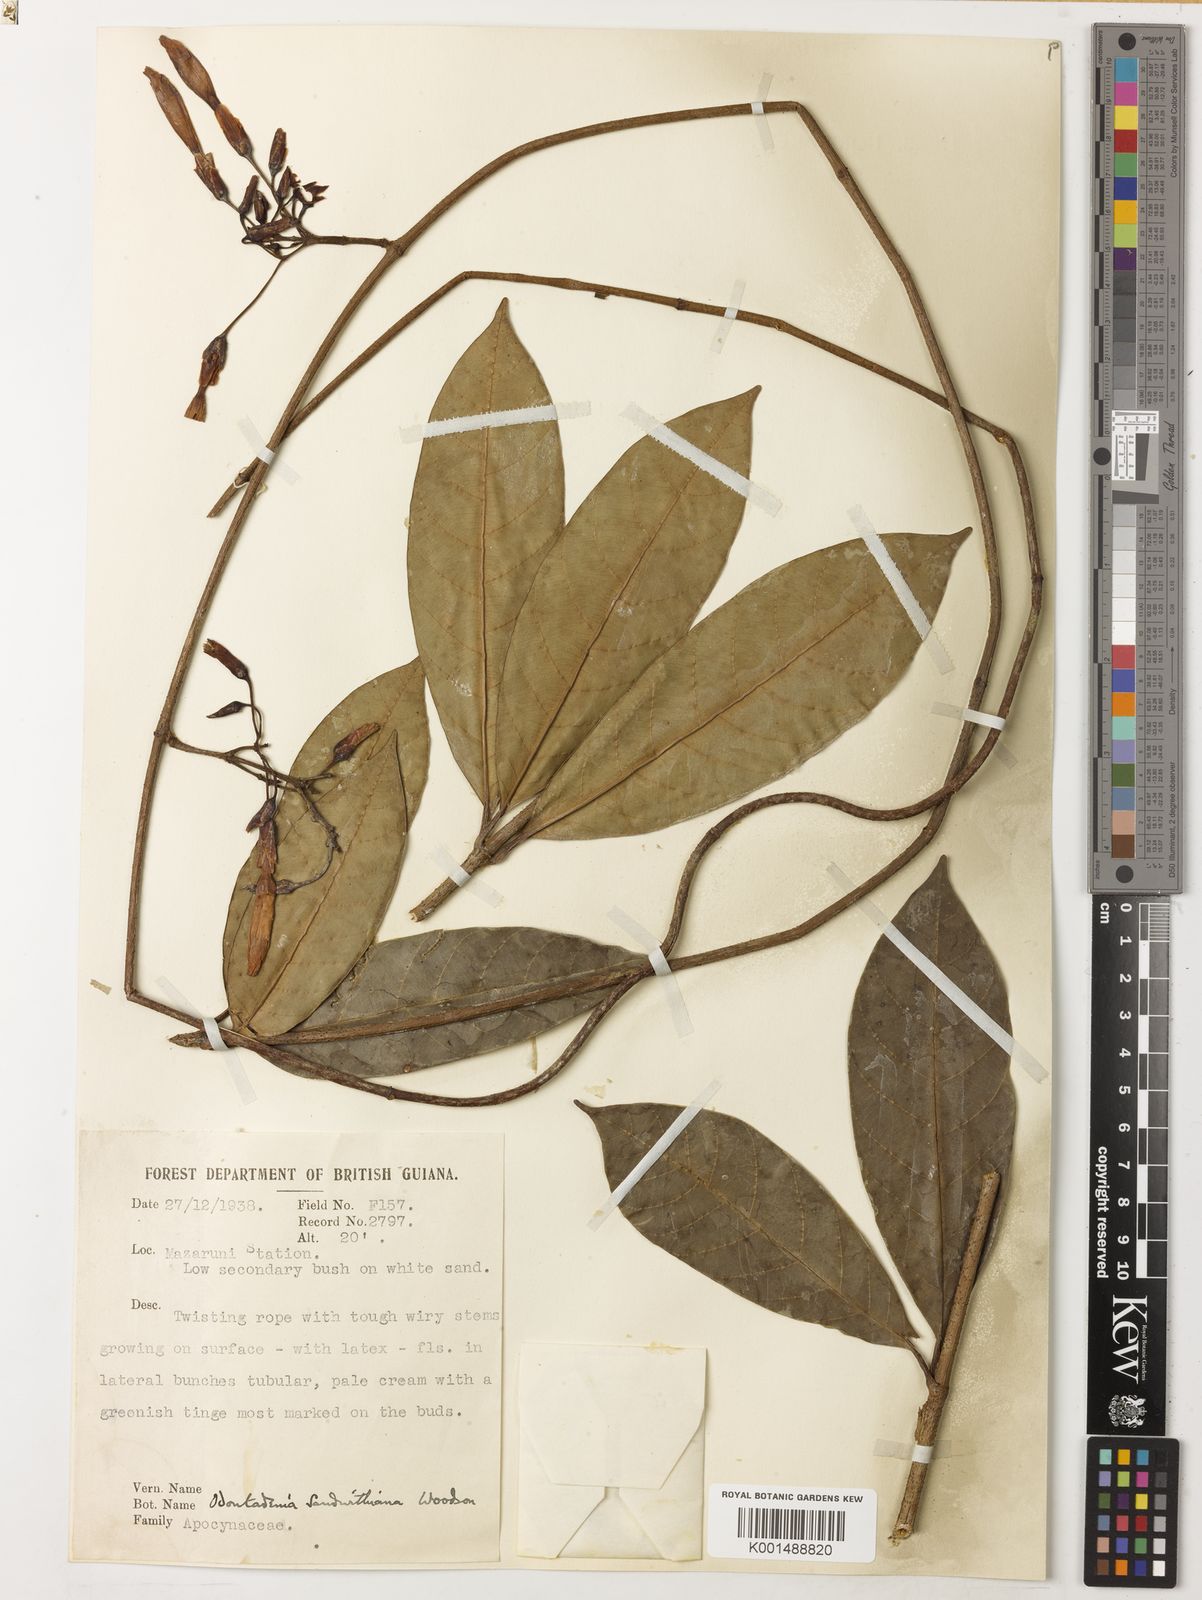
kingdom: Plantae
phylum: Tracheophyta
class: Magnoliopsida
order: Gentianales
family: Apocynaceae
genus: Odontadenia
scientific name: Odontadenia kochii
